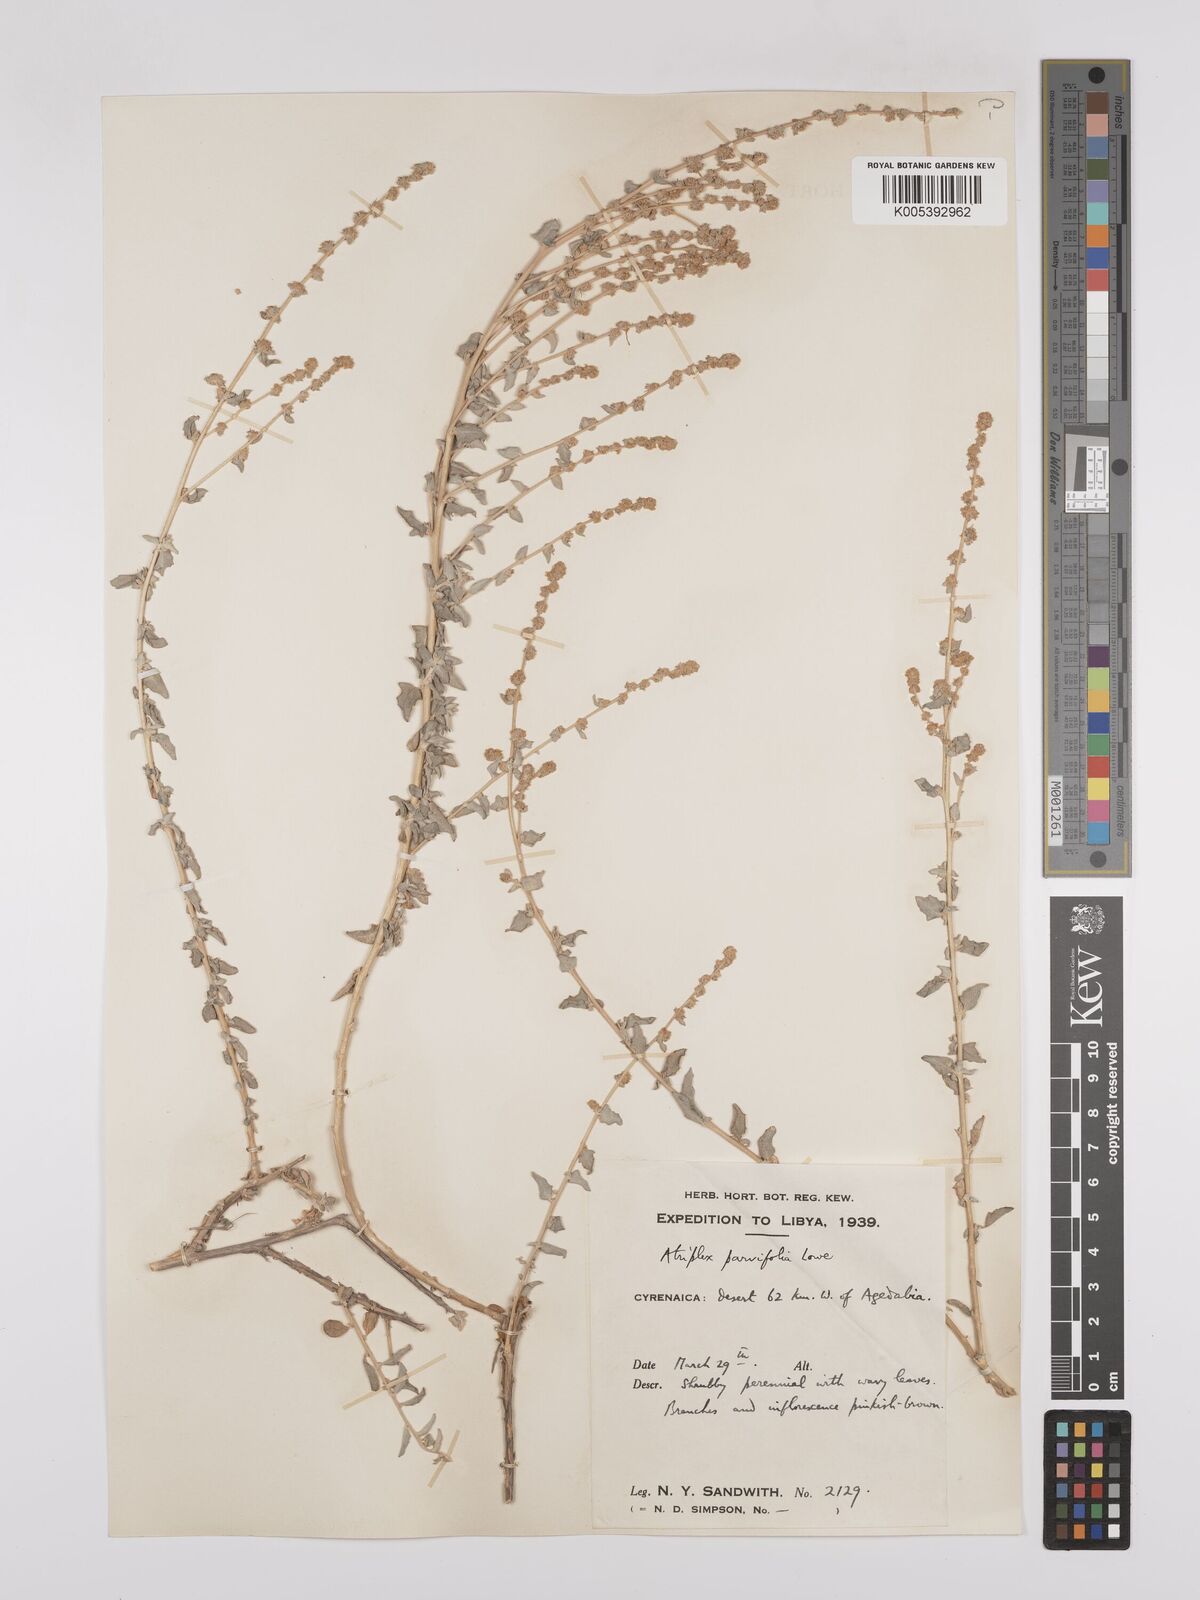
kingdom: Plantae
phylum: Tracheophyta
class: Magnoliopsida
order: Caryophyllales
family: Amaranthaceae
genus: Atriplex
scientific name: Atriplex
